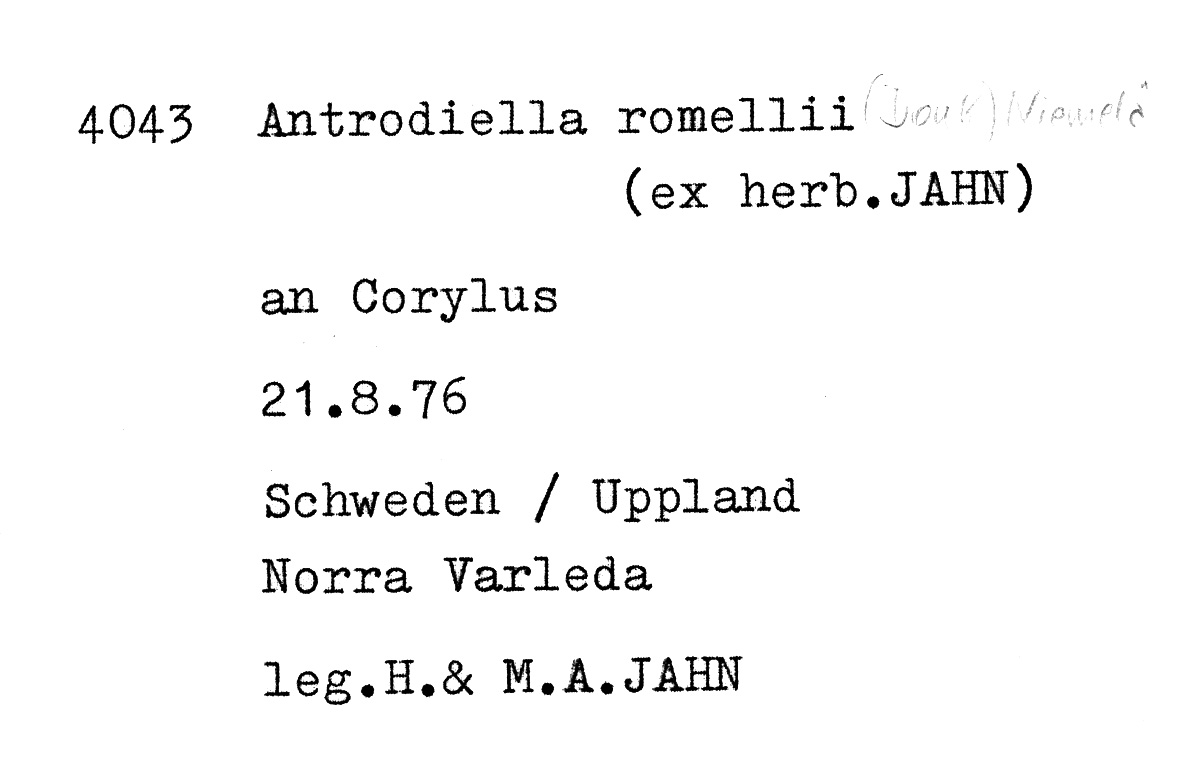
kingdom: Plantae
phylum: Tracheophyta
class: Magnoliopsida
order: Fagales
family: Betulaceae
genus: Corylus
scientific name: Corylus
